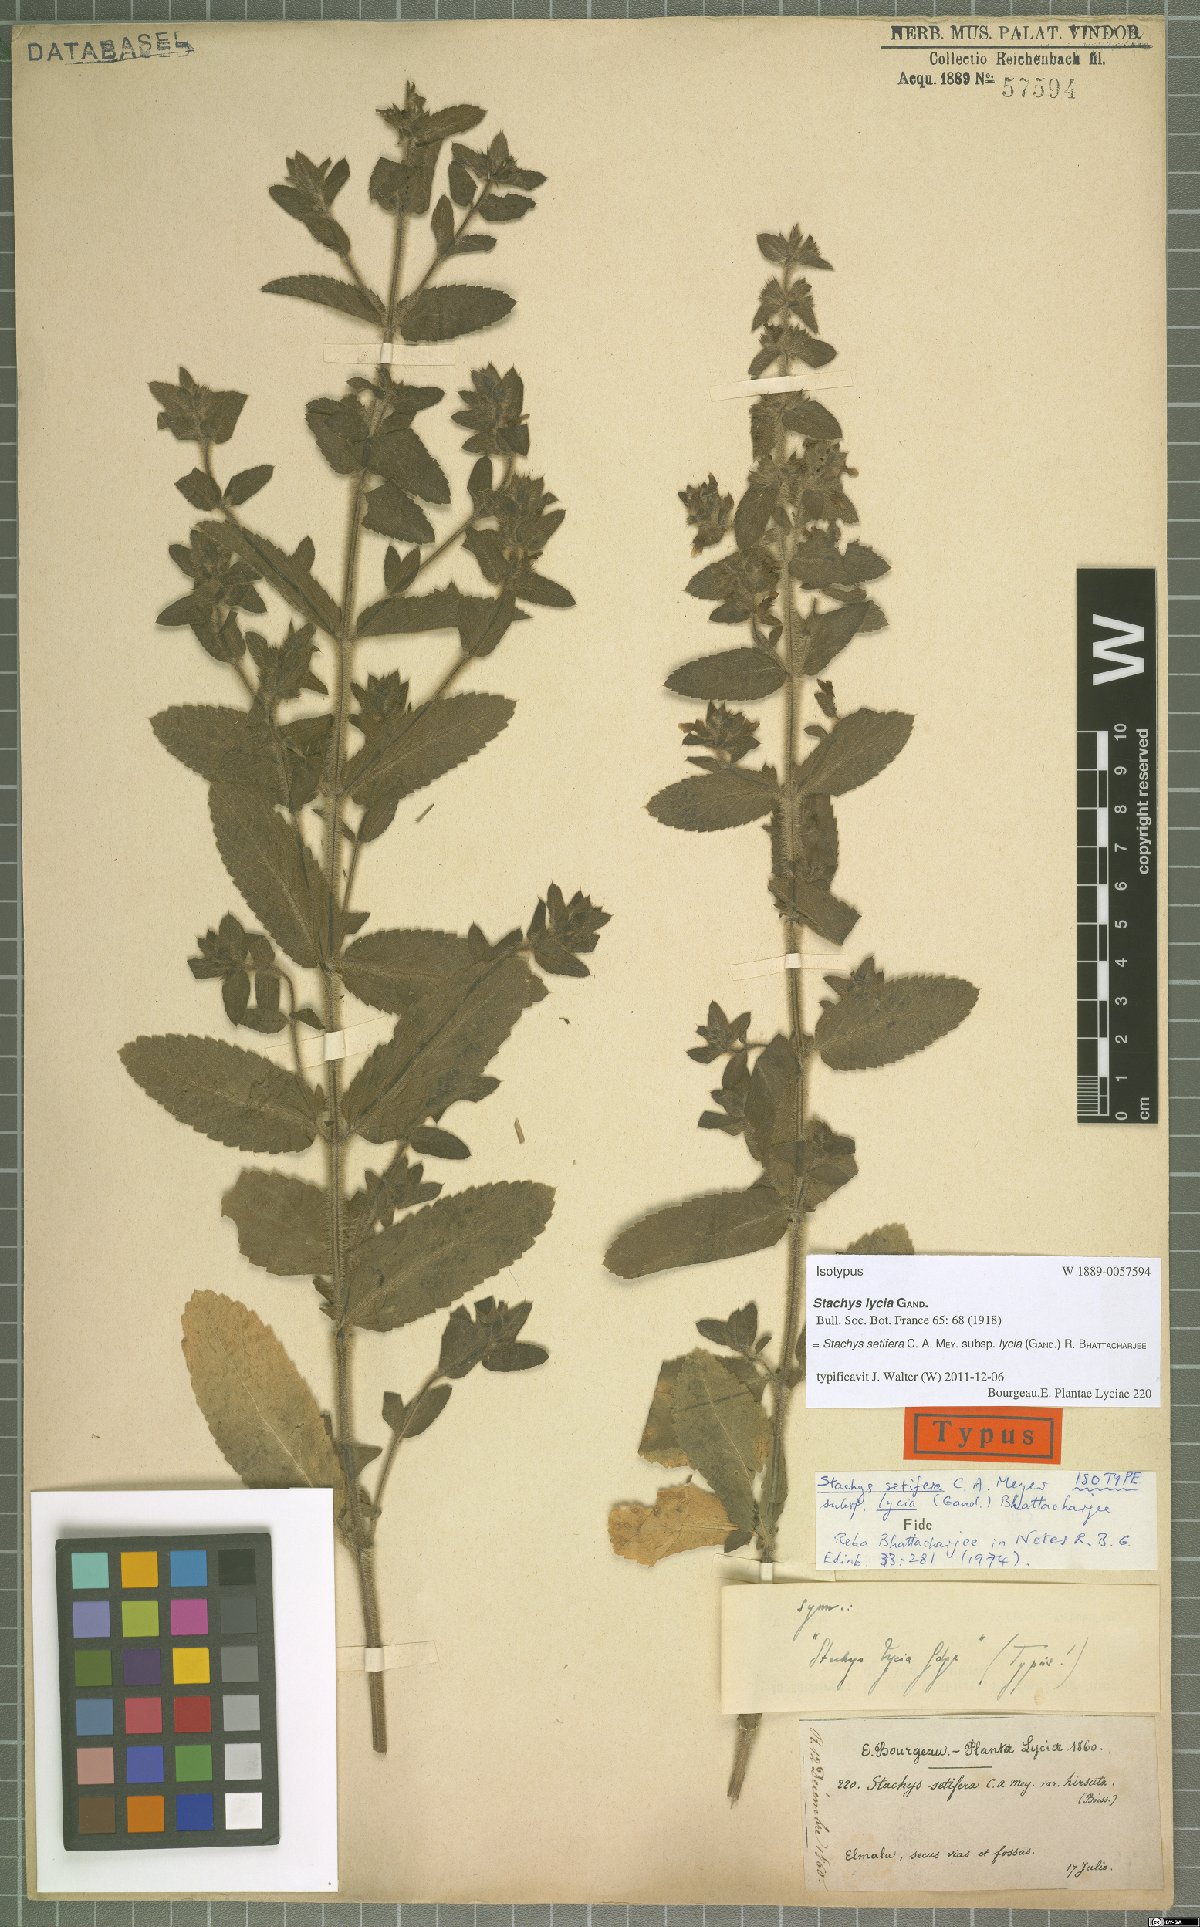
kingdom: Plantae
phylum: Tracheophyta
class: Magnoliopsida
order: Lamiales
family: Lamiaceae
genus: Stachys
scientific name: Stachys setifera
